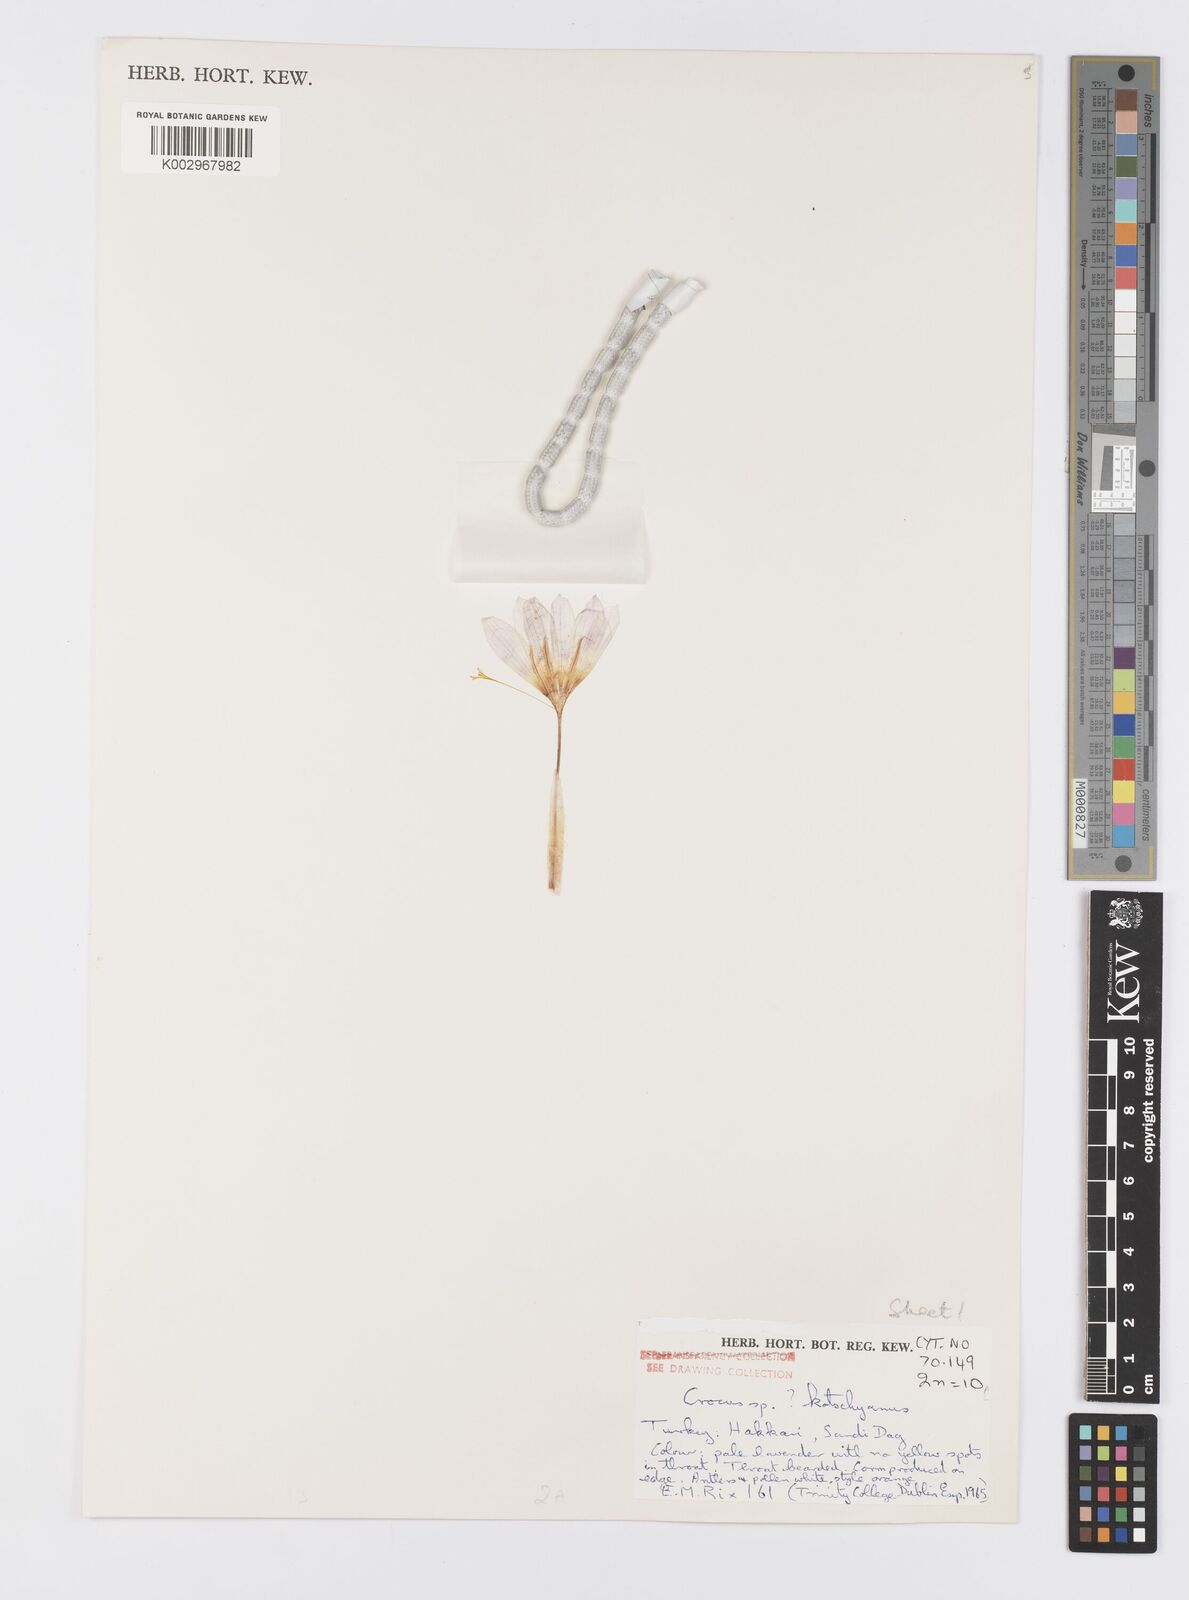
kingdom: Plantae
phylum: Tracheophyta
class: Liliopsida
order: Asparagales
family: Iridaceae
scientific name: Iridaceae
